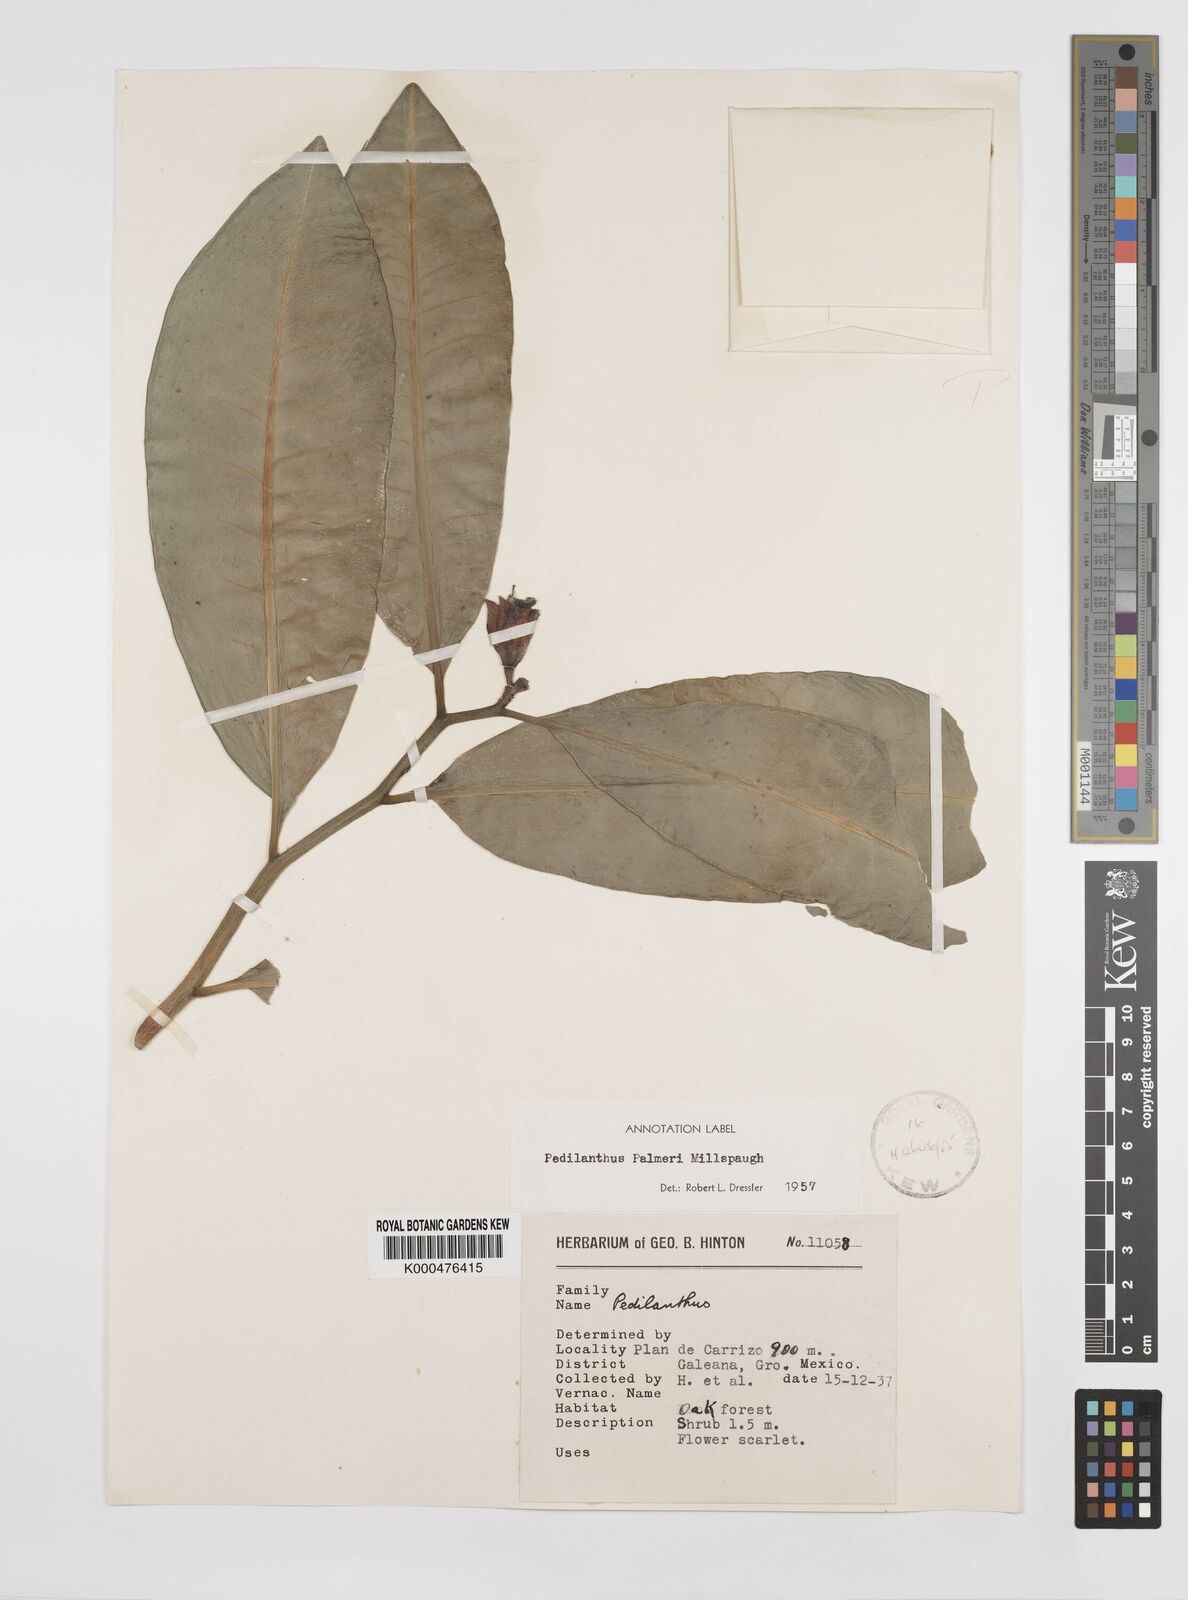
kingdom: Plantae
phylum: Tracheophyta
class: Magnoliopsida
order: Malpighiales
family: Euphorbiaceae
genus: Euphorbia
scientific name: Euphorbia peritropoides
